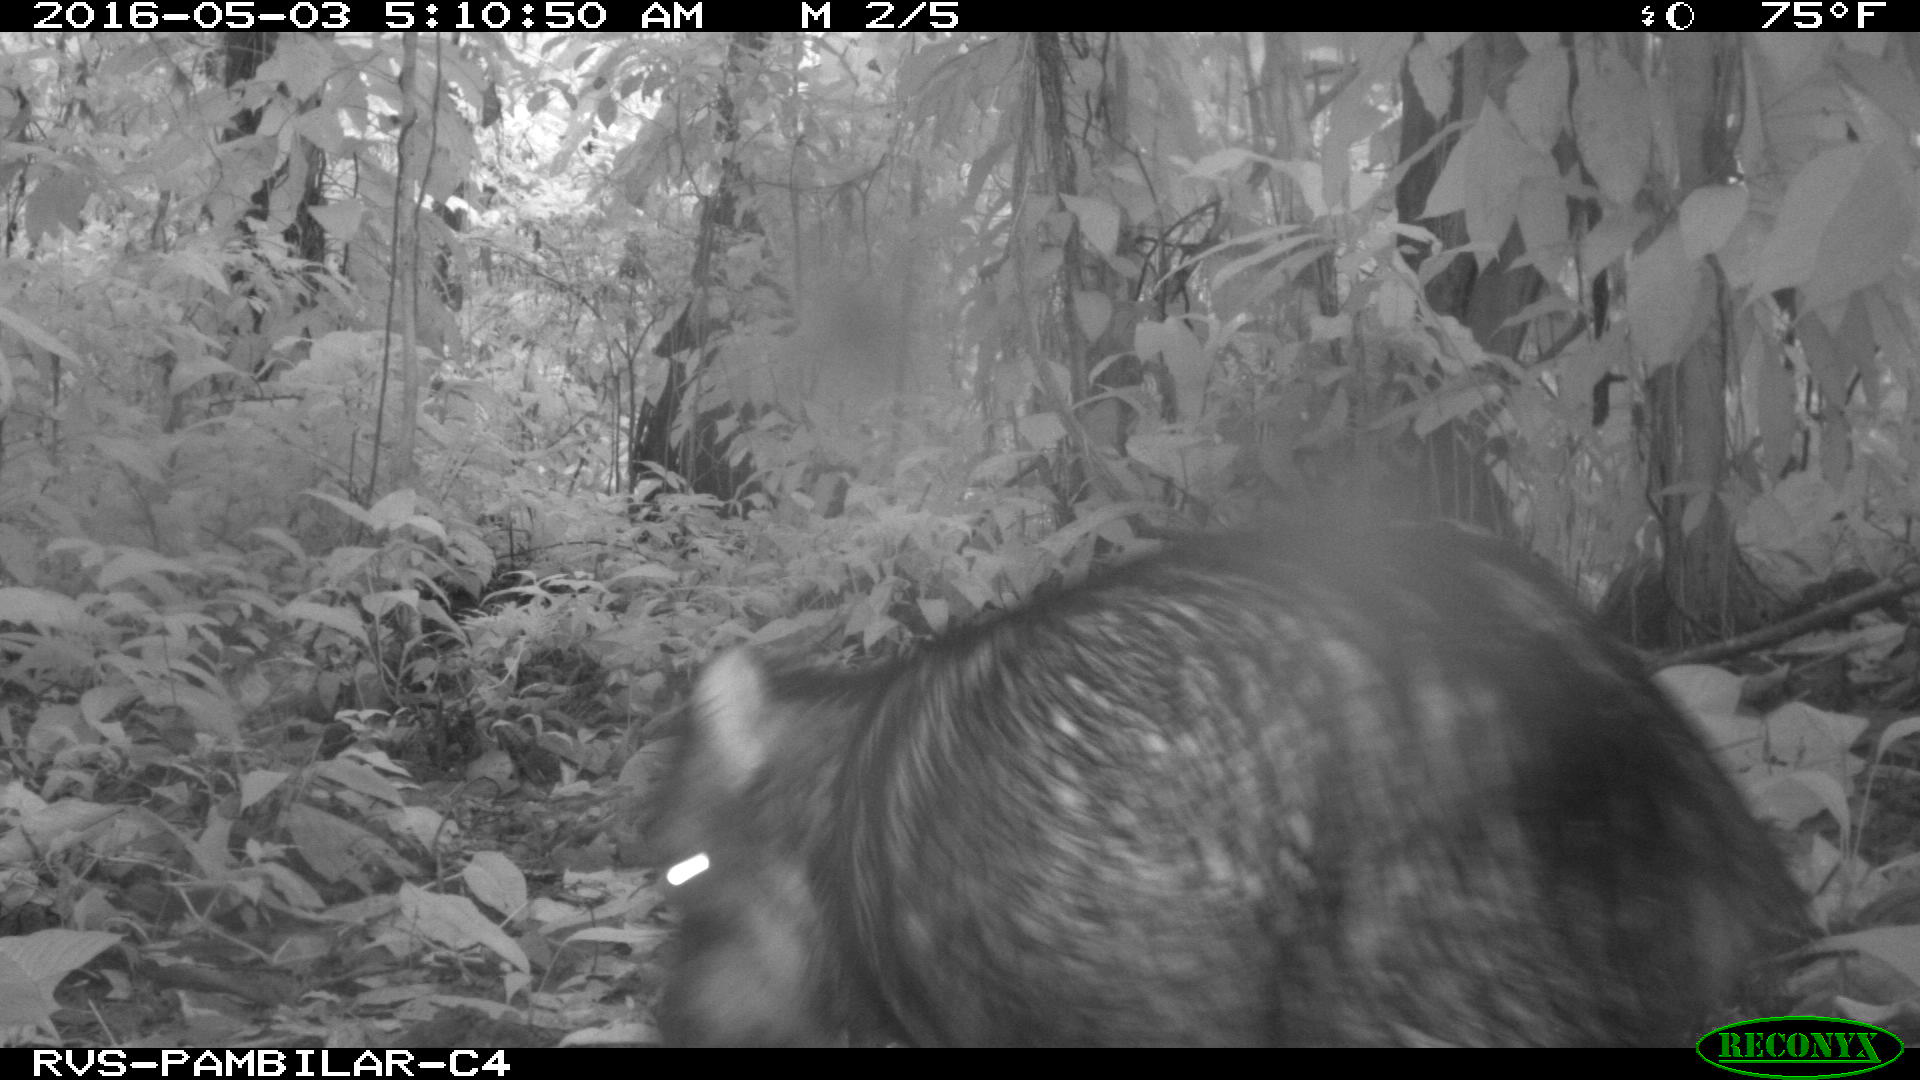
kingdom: Animalia
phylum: Chordata
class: Mammalia
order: Artiodactyla
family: Tayassuidae
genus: Tayassu
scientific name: Tayassu pecari
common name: White-lipped peccary
